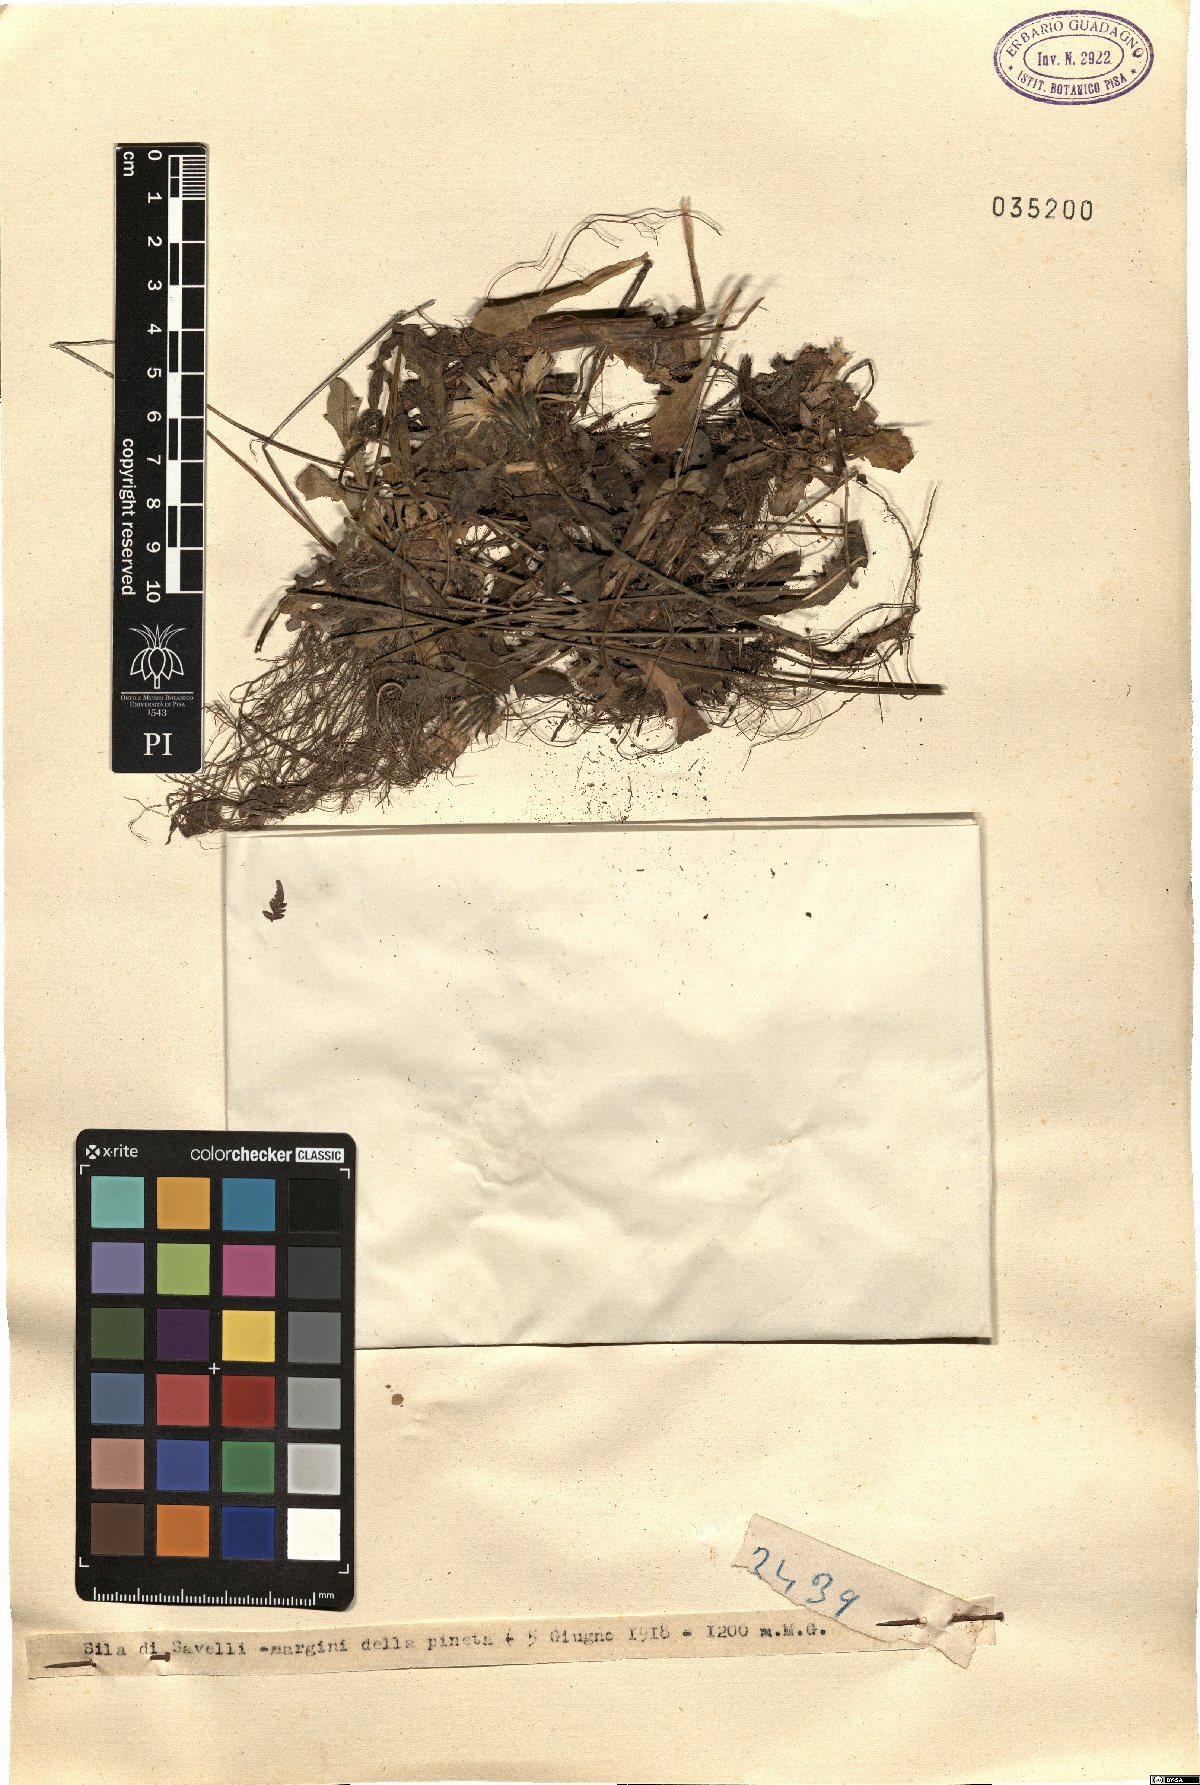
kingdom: Plantae
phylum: Tracheophyta
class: Magnoliopsida
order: Asterales
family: Asteraceae
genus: Thrincia
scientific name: Thrincia
